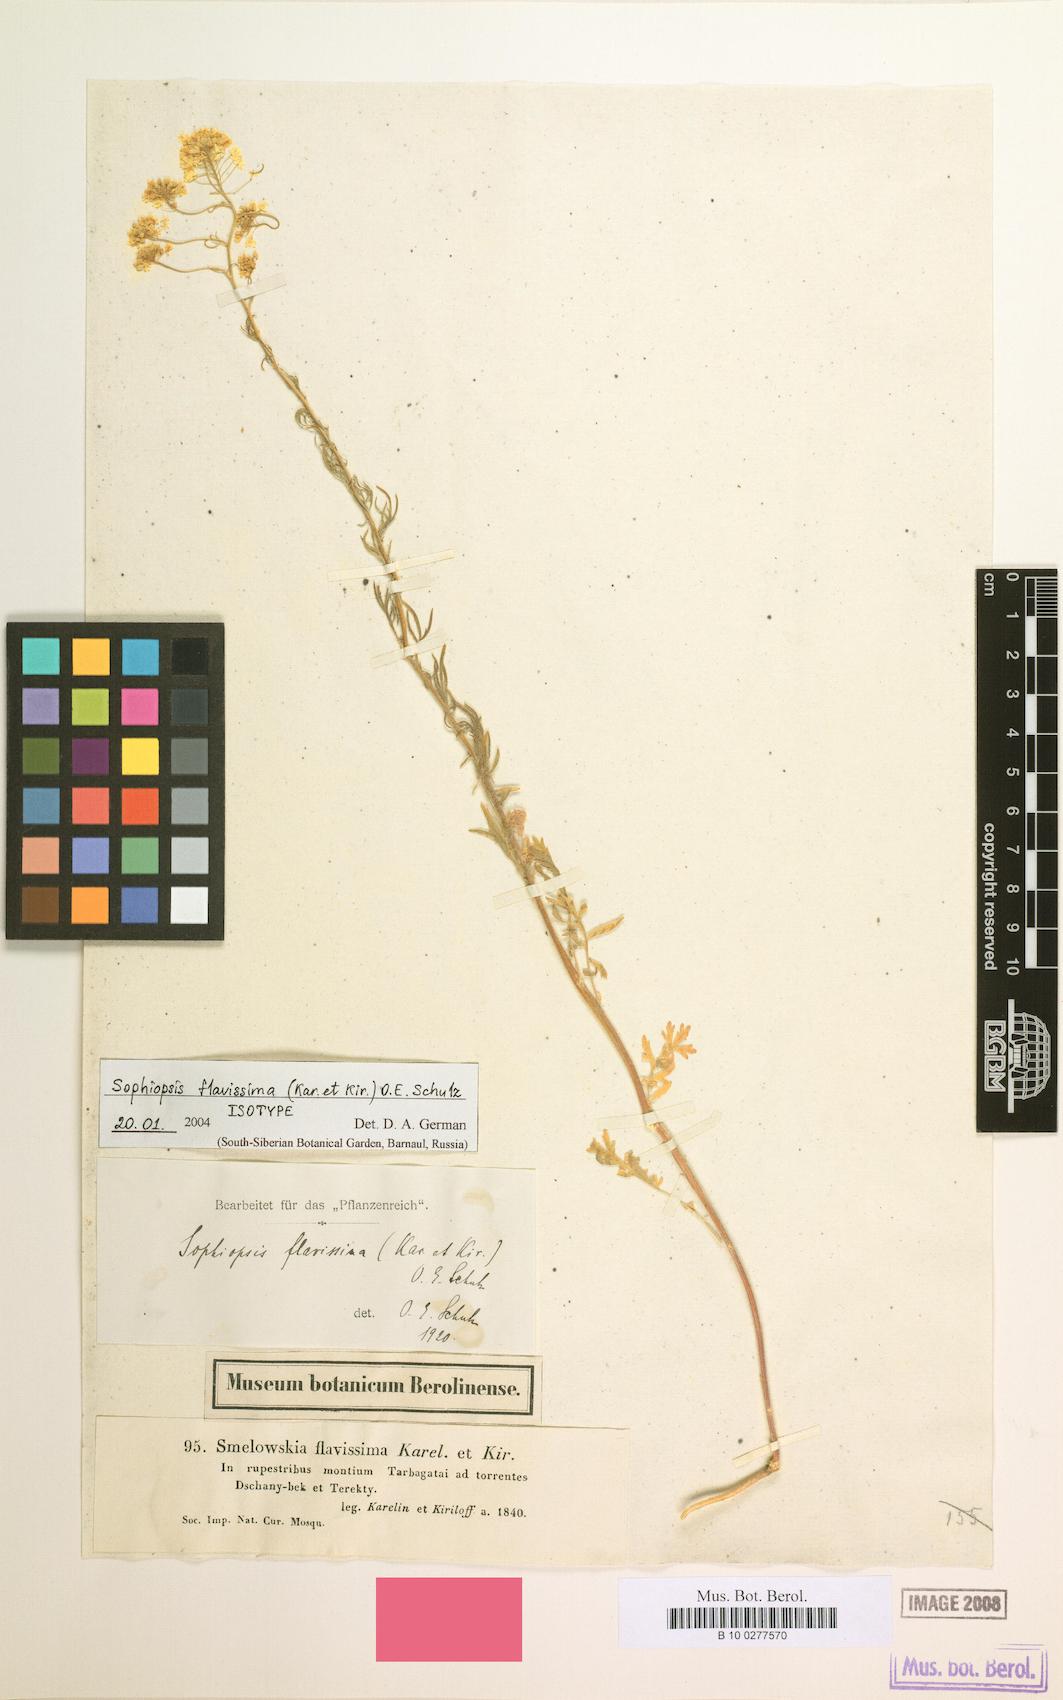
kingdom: Plantae
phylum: Tracheophyta
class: Magnoliopsida
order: Brassicales
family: Brassicaceae
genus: Smelowskia
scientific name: Smelowskia flavissima
